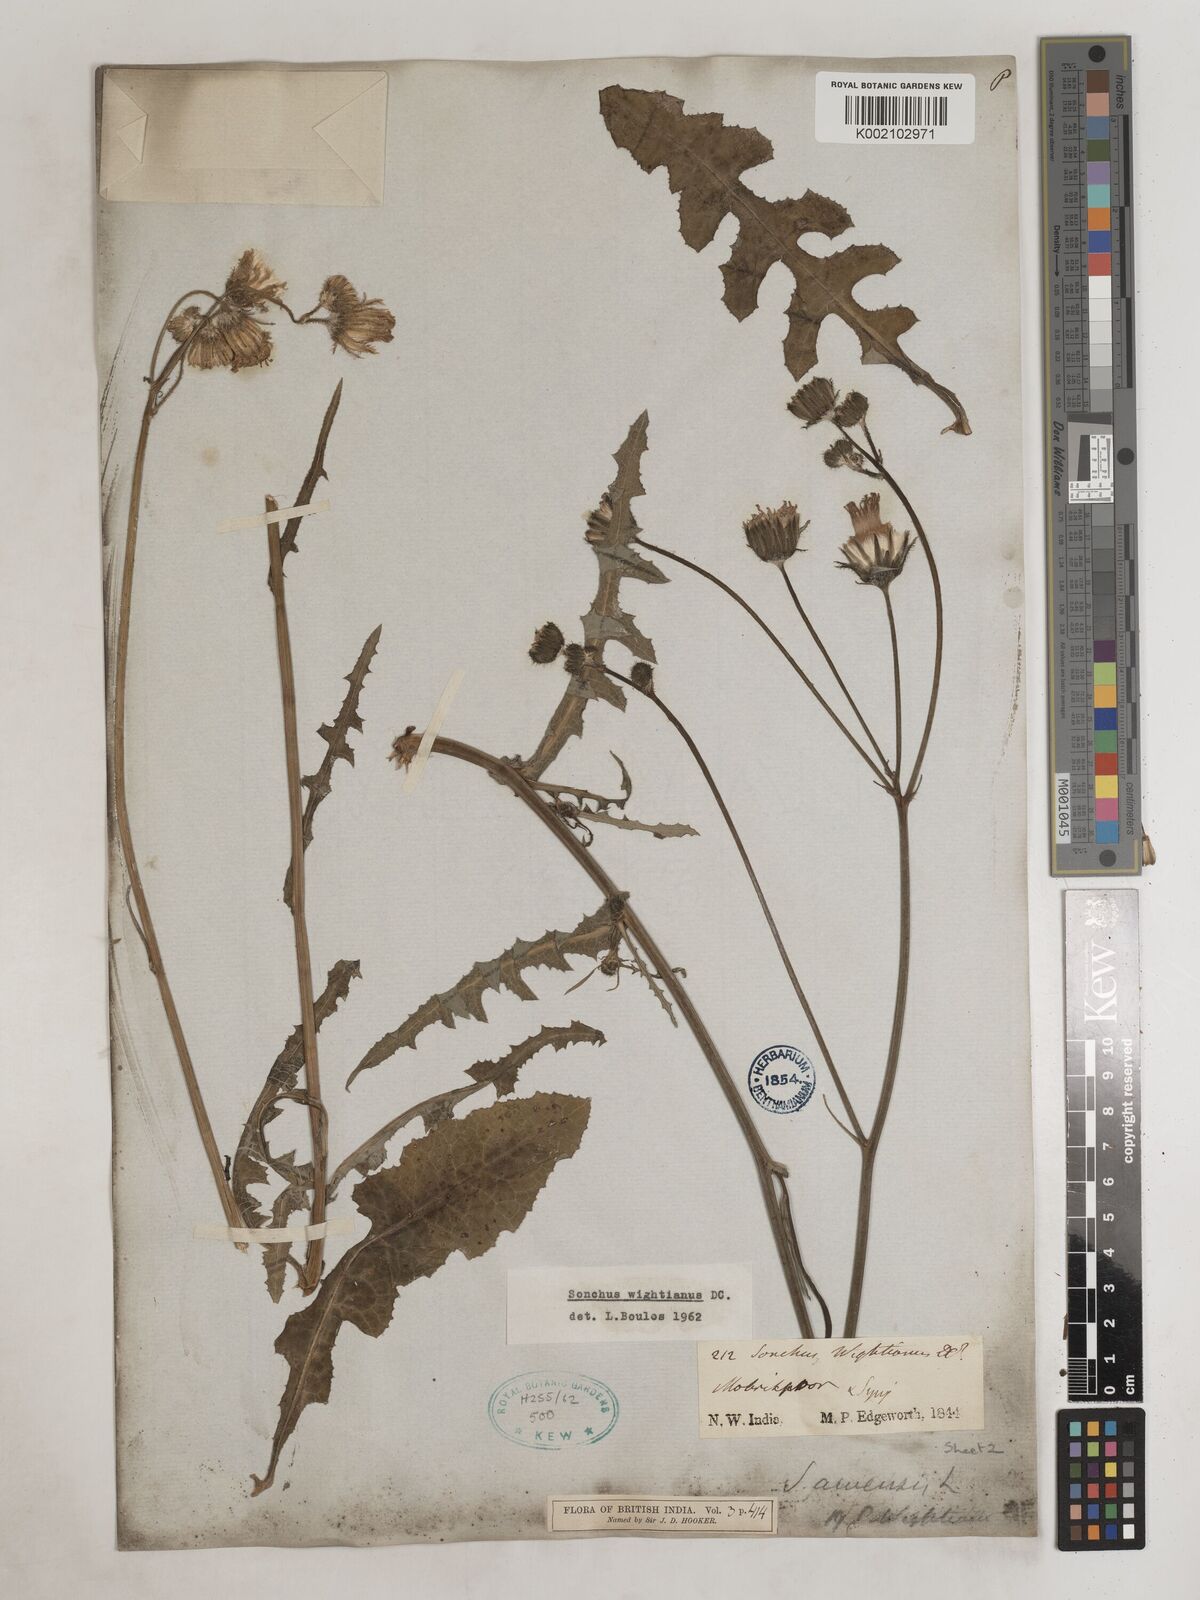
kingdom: Plantae
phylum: Tracheophyta
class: Magnoliopsida
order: Asterales
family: Asteraceae
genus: Sonchus
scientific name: Sonchus arvensis
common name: Perennial sow-thistle
